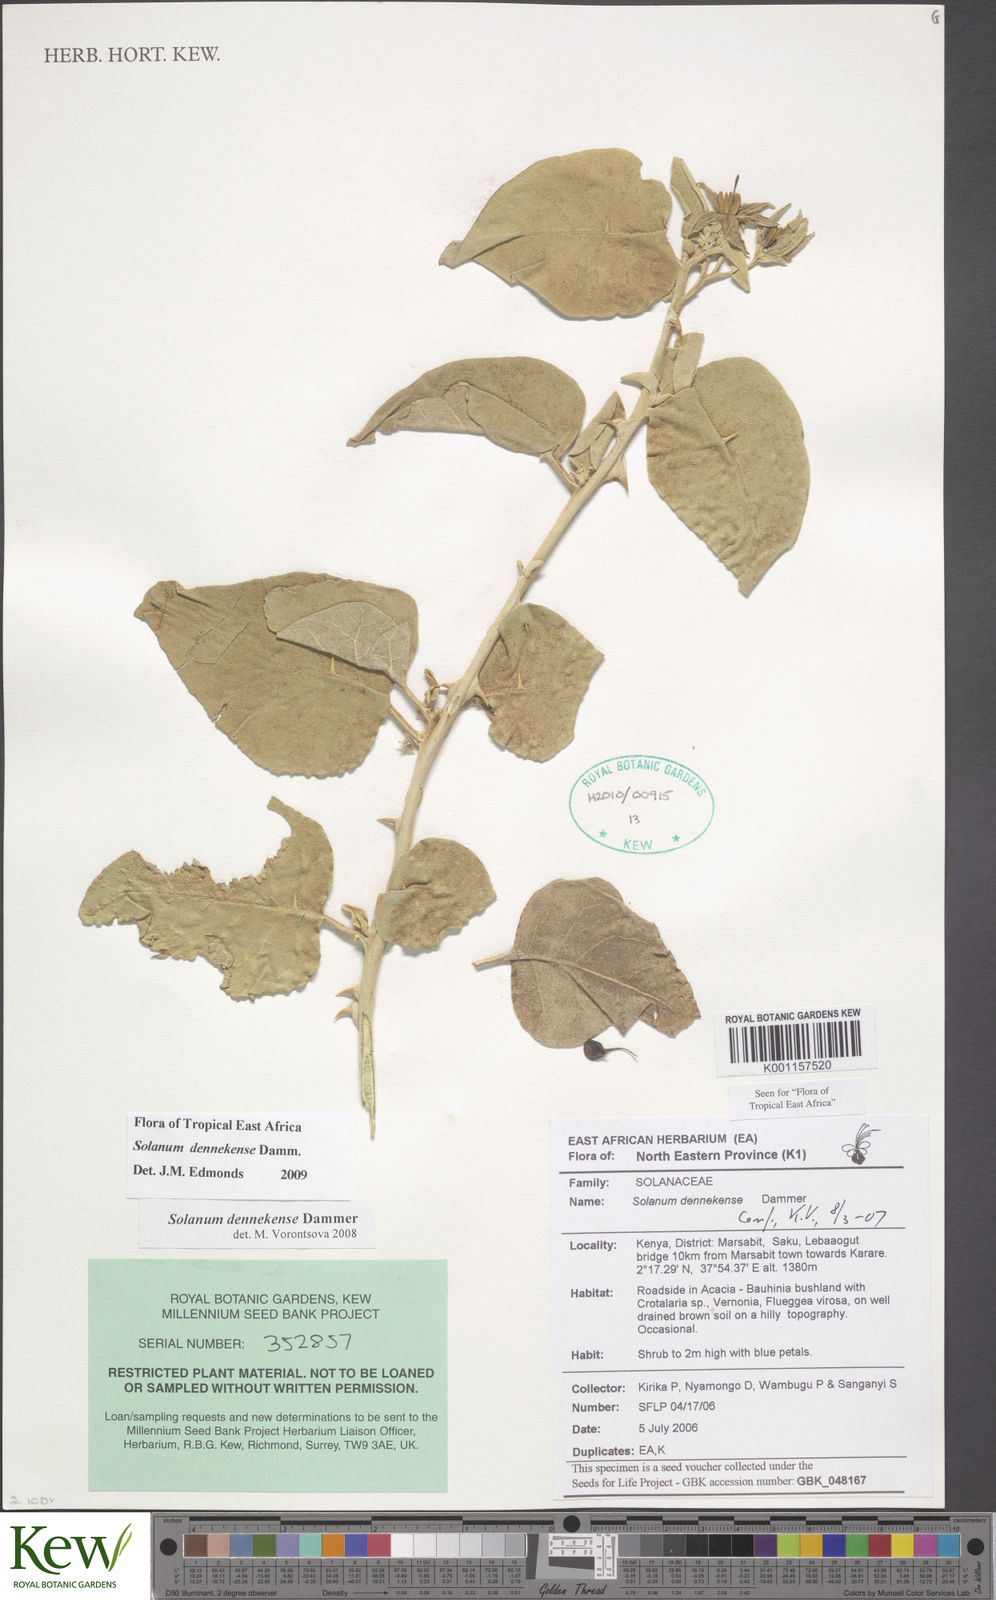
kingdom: Plantae
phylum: Tracheophyta
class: Magnoliopsida
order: Solanales
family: Solanaceae
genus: Solanum
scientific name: Solanum dennekense
